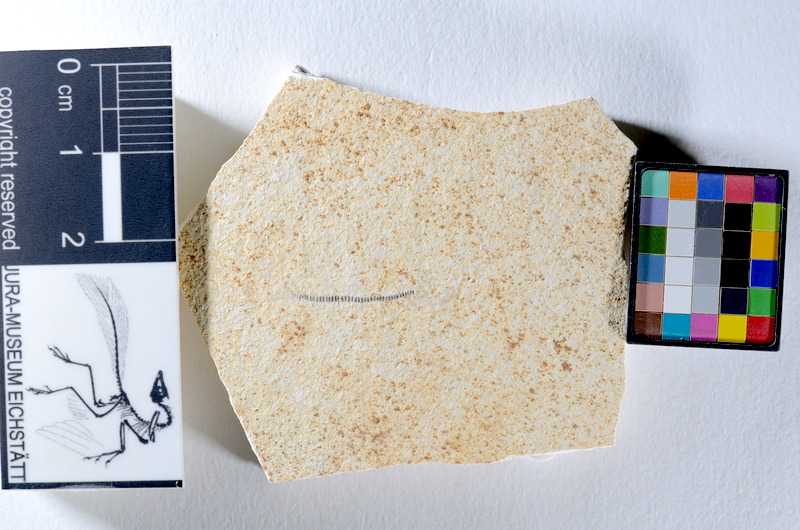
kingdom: Animalia
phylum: Chordata
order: Salmoniformes
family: Orthogonikleithridae
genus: Orthogonikleithrus
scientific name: Orthogonikleithrus hoelli
